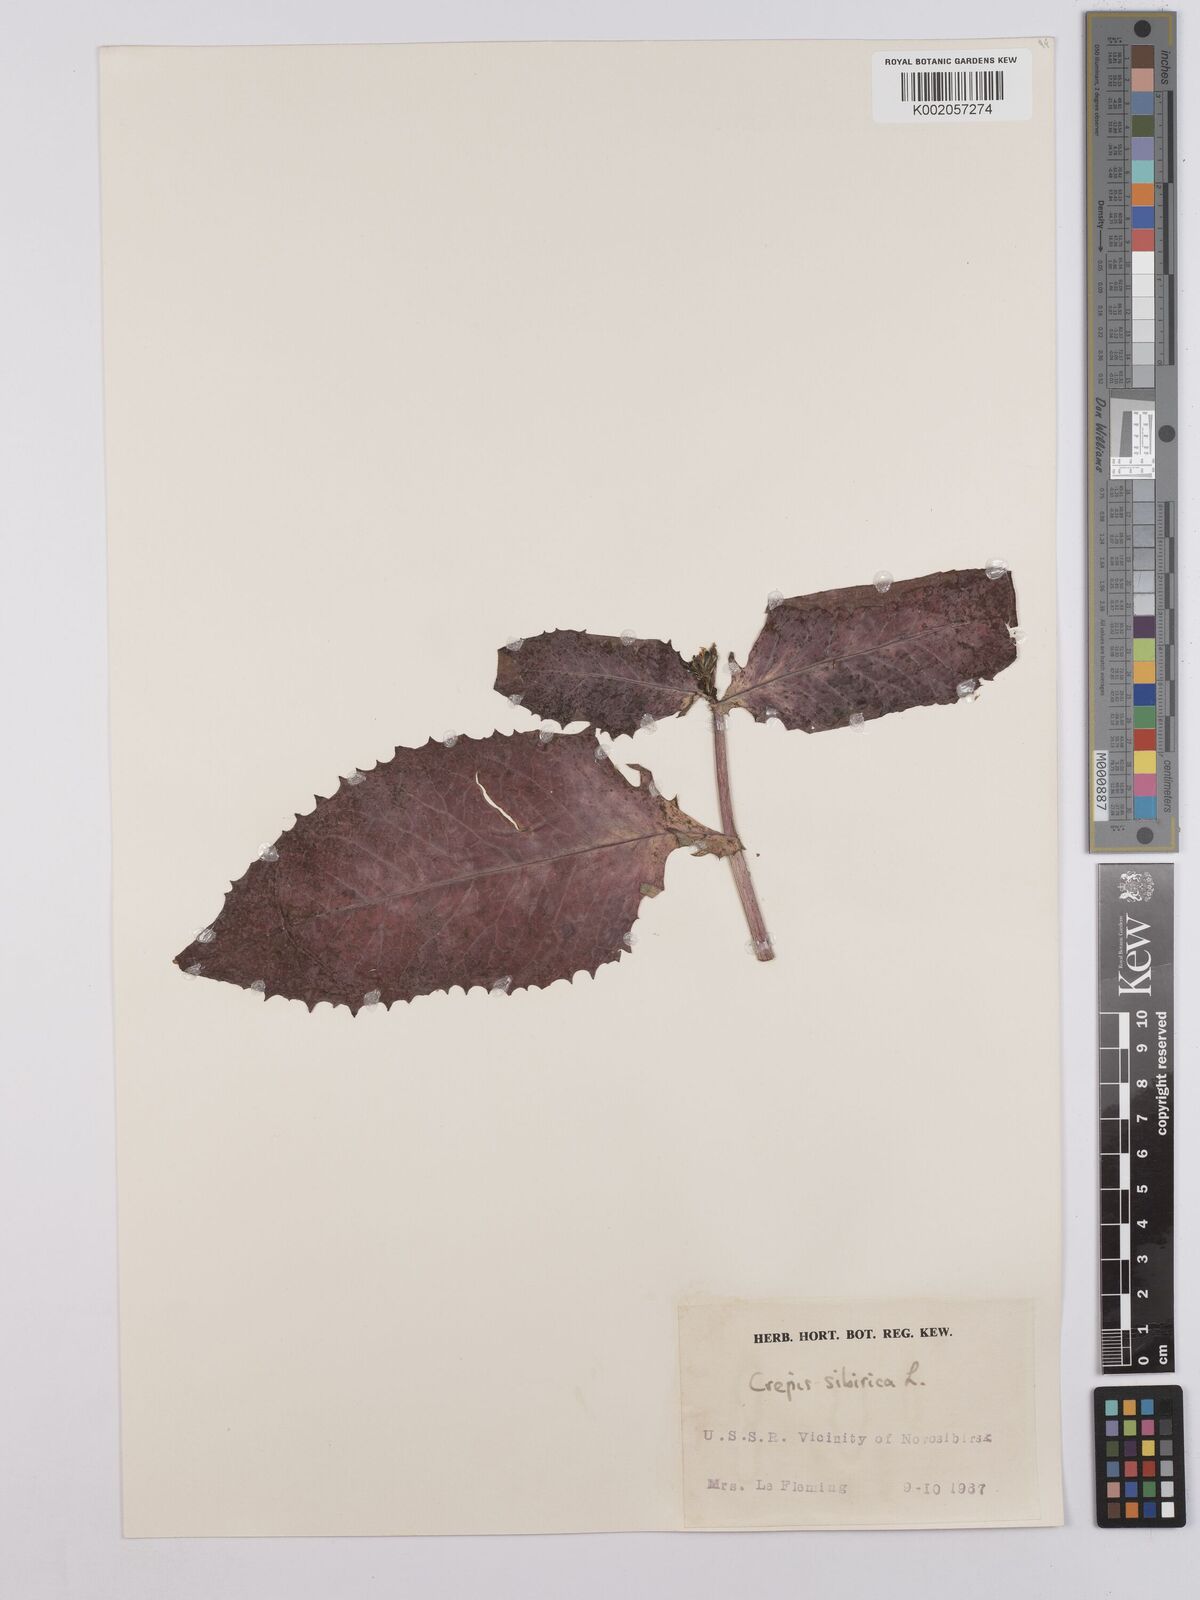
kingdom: Plantae
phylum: Tracheophyta
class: Magnoliopsida
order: Asterales
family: Asteraceae
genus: Crepis
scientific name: Crepis sibirica
